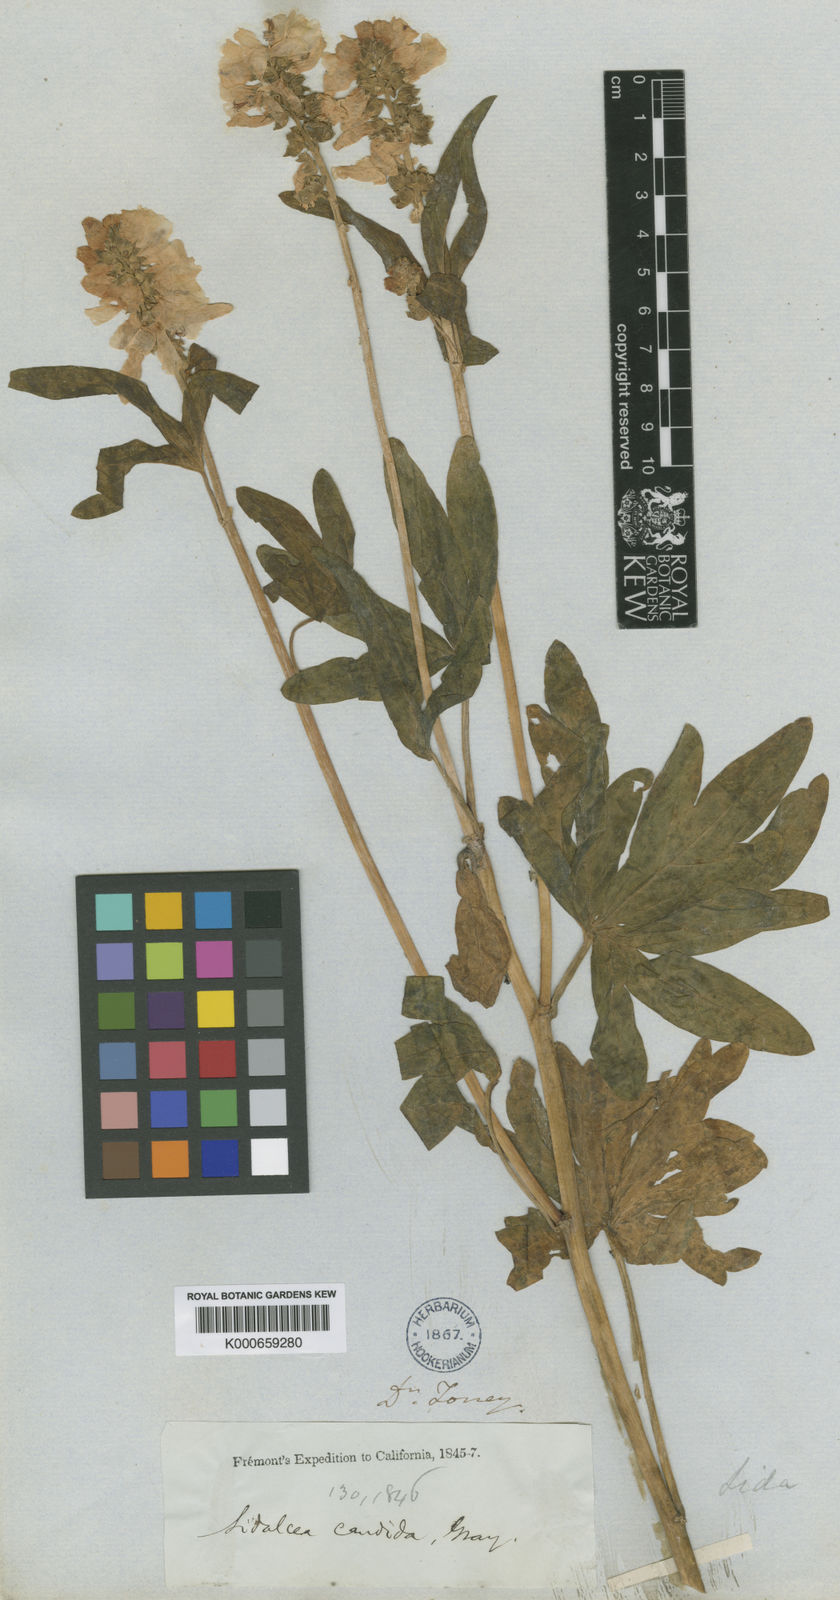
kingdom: Plantae
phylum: Tracheophyta
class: Magnoliopsida
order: Malvales
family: Malvaceae
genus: Sidalcea
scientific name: Sidalcea candida
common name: Prairie-mallow
